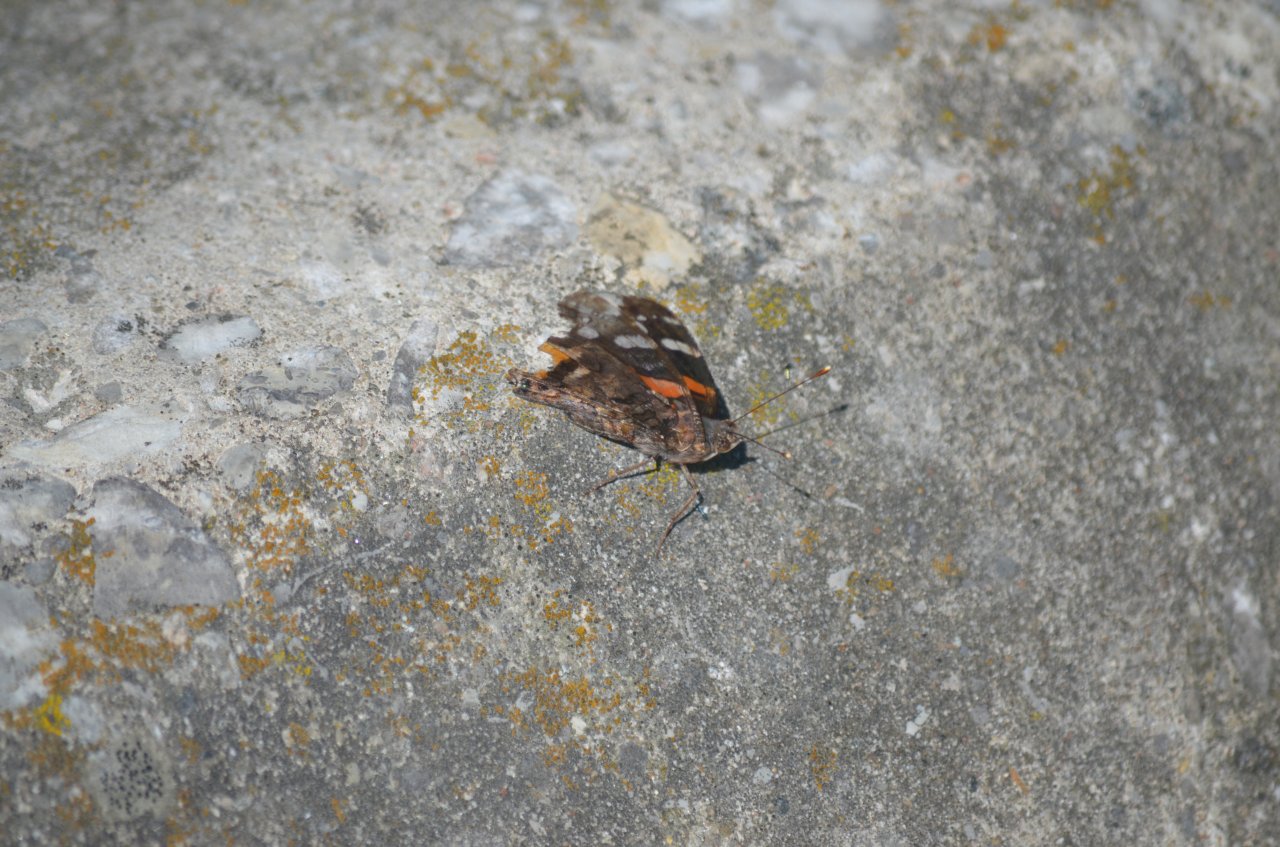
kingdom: Animalia
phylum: Arthropoda
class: Insecta
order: Lepidoptera
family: Nymphalidae
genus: Vanessa
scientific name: Vanessa atalanta
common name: Red Admiral
